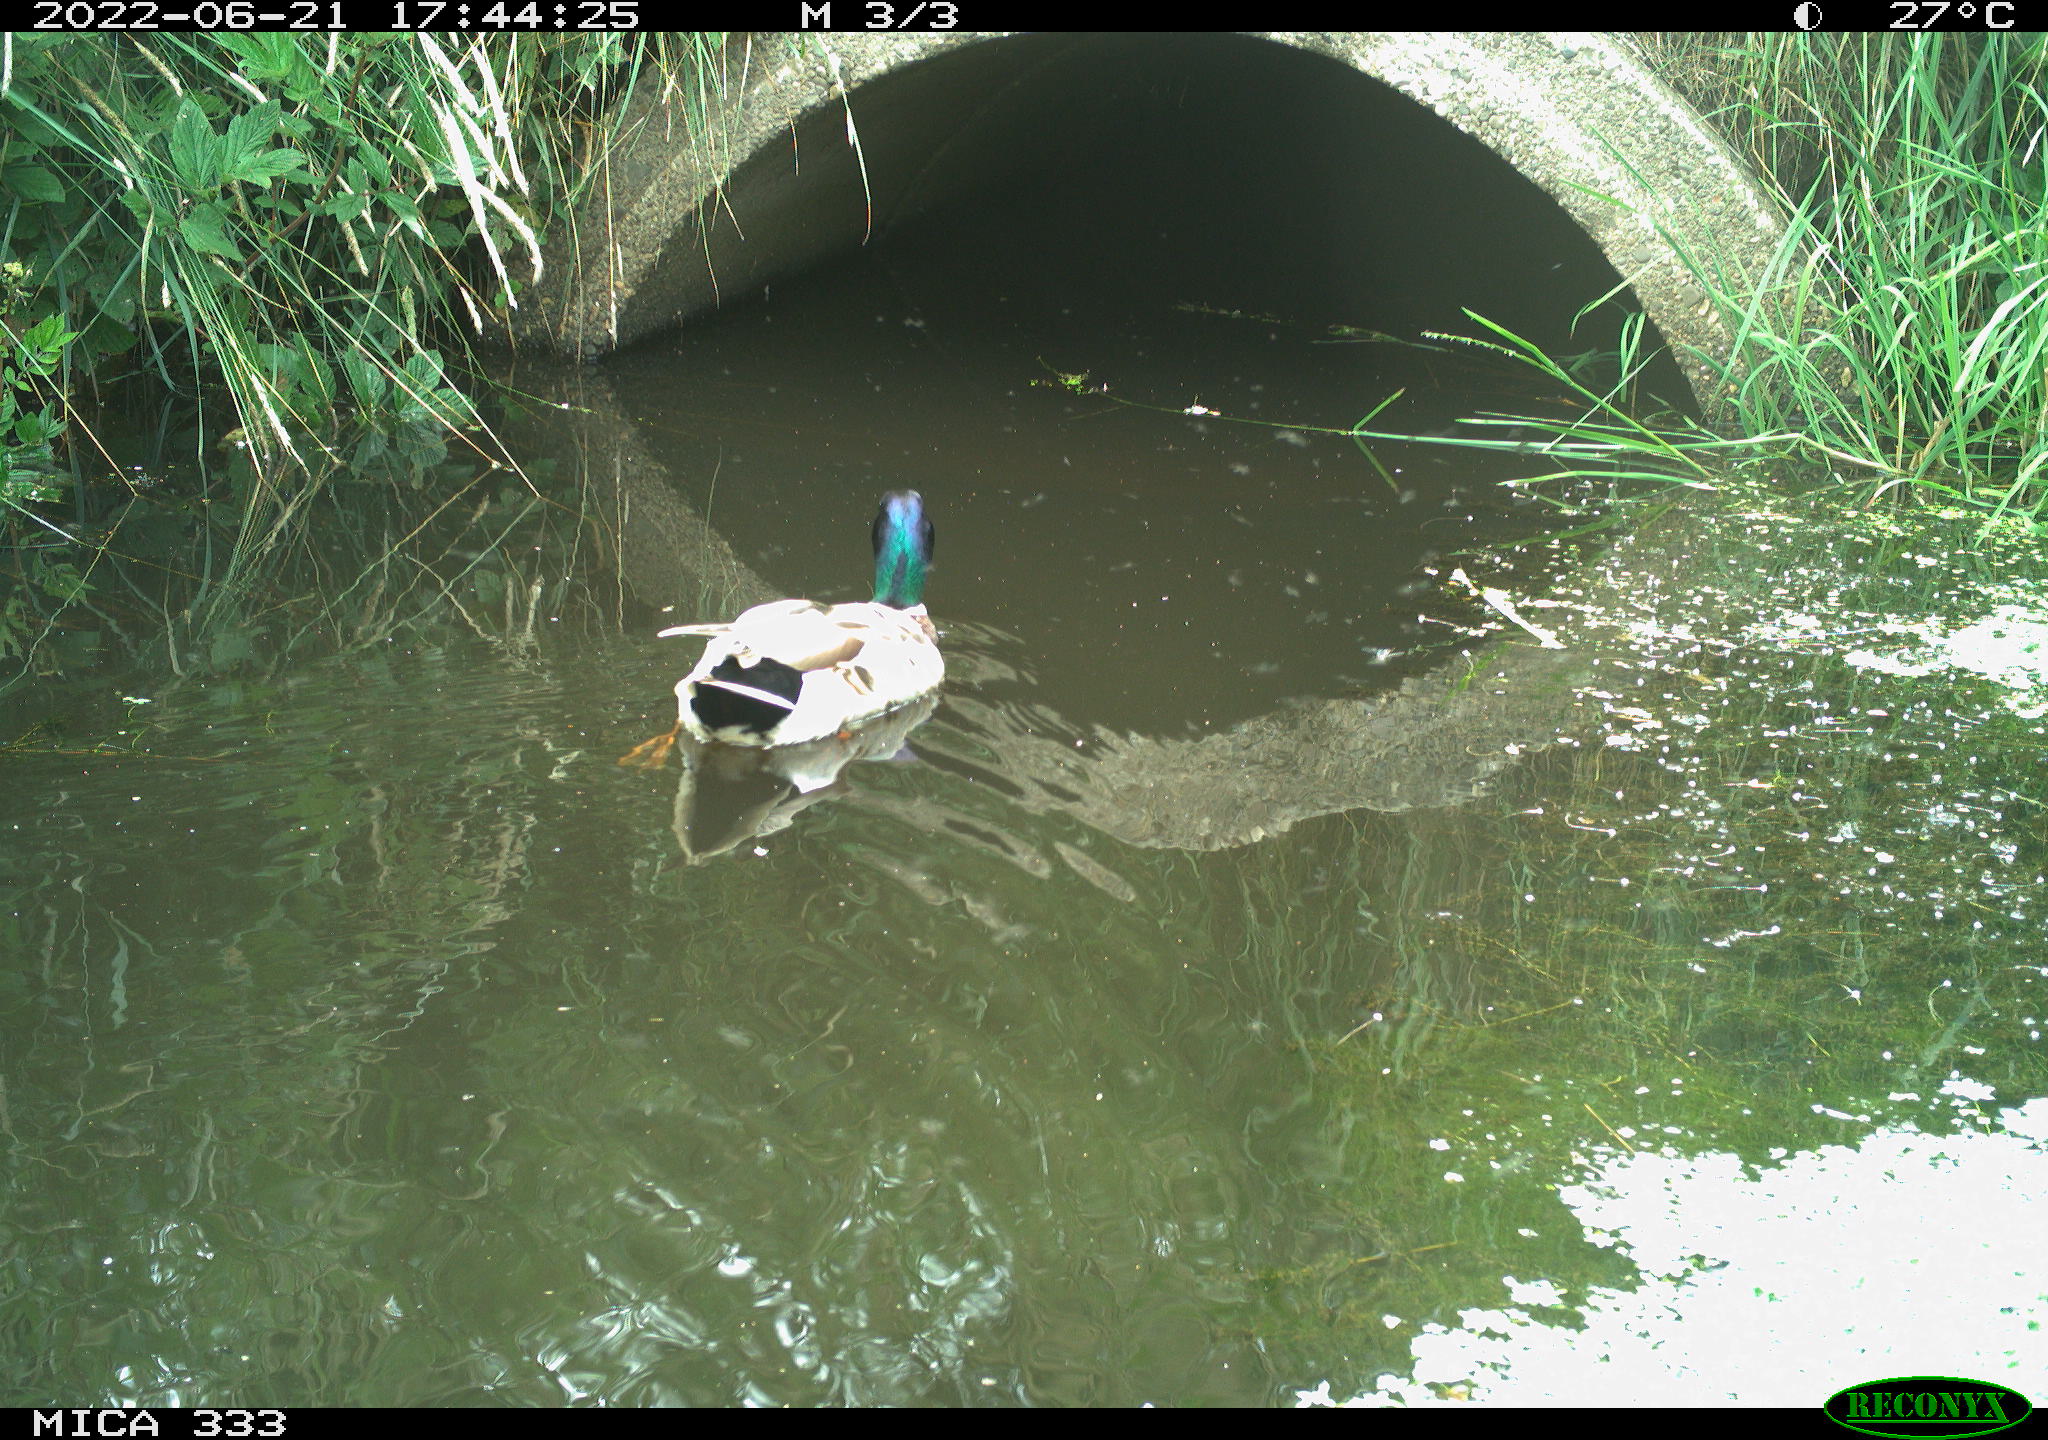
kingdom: Animalia
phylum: Chordata
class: Aves
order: Anseriformes
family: Anatidae
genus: Anas
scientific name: Anas platyrhynchos
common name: Mallard
